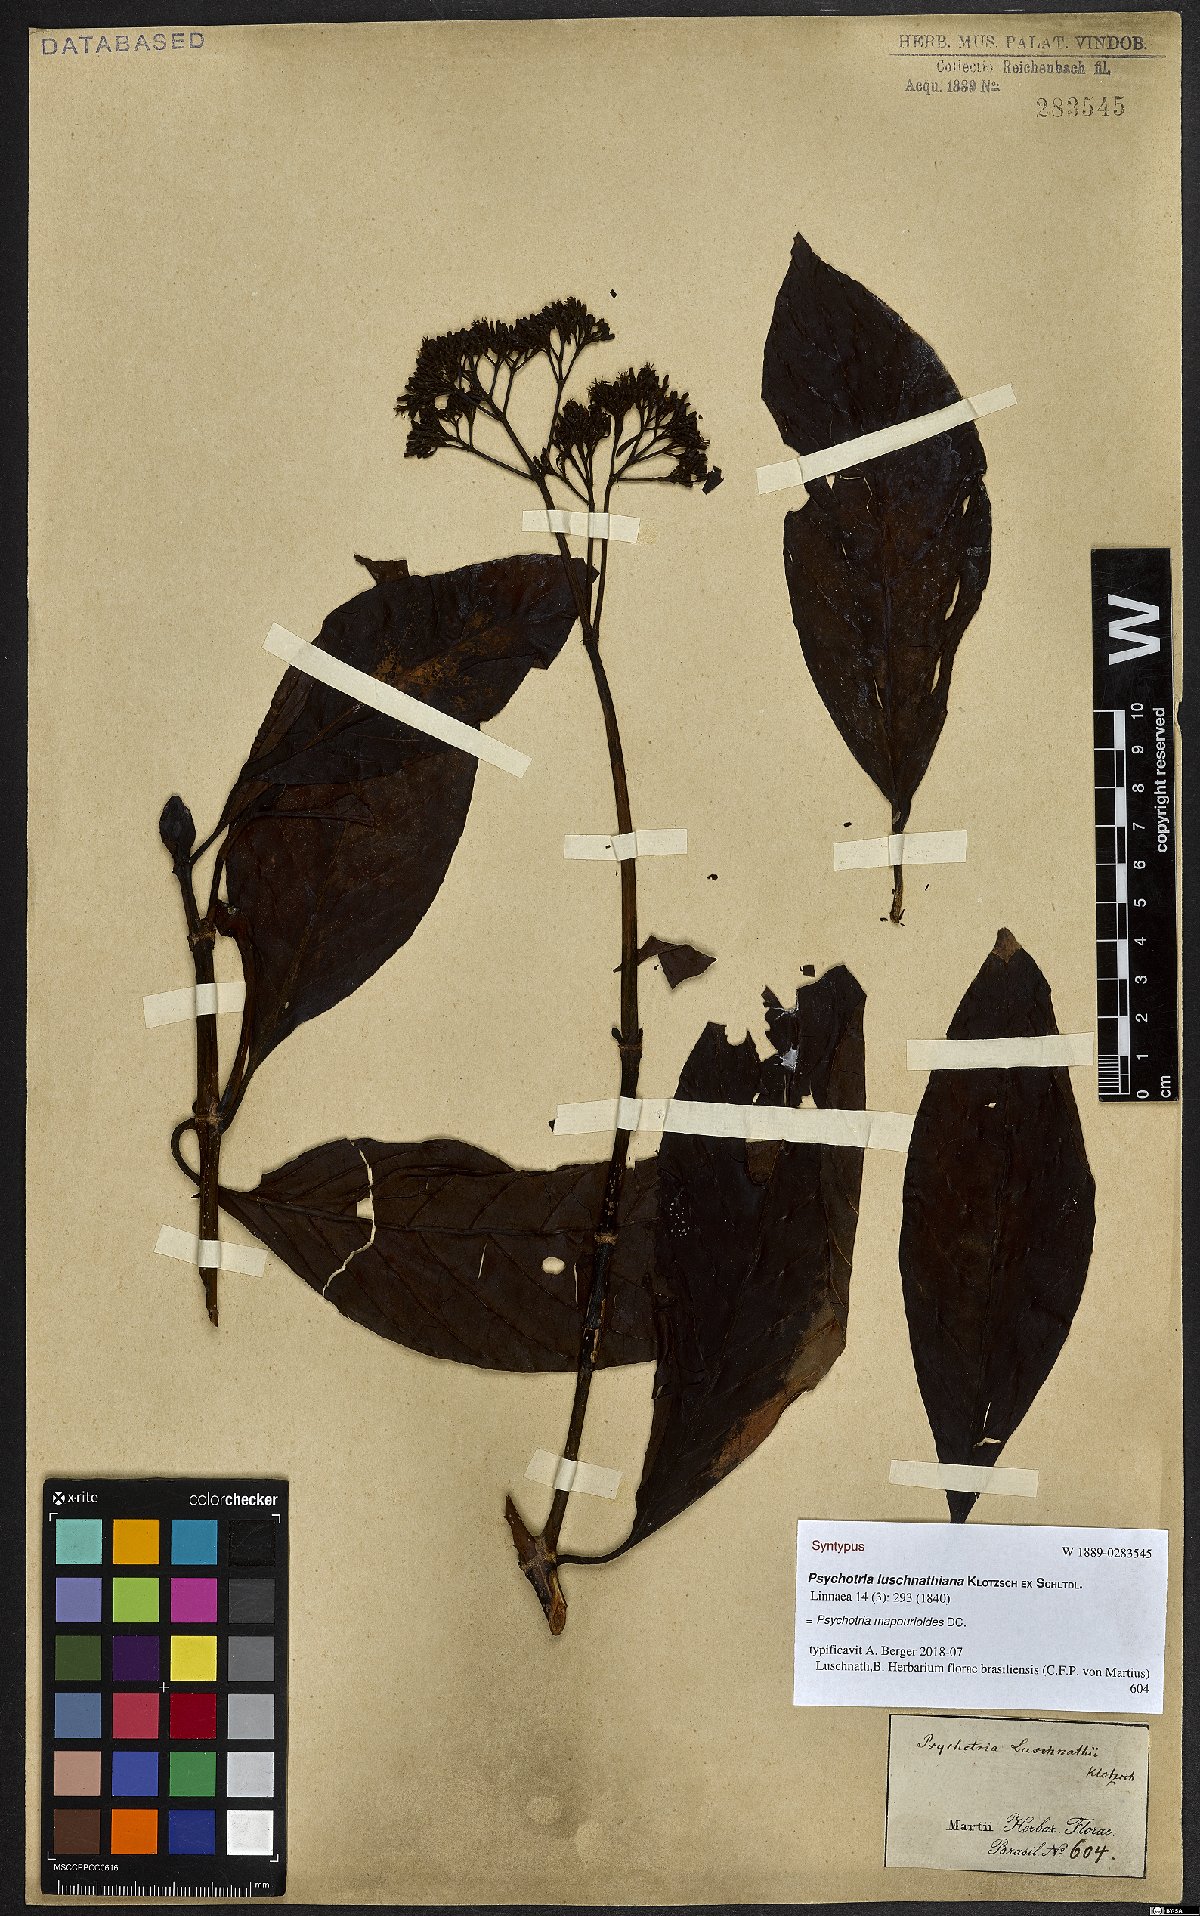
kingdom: Plantae
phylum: Tracheophyta
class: Magnoliopsida
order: Gentianales
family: Rubiaceae
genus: Psychotria
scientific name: Psychotria pedunculosa
